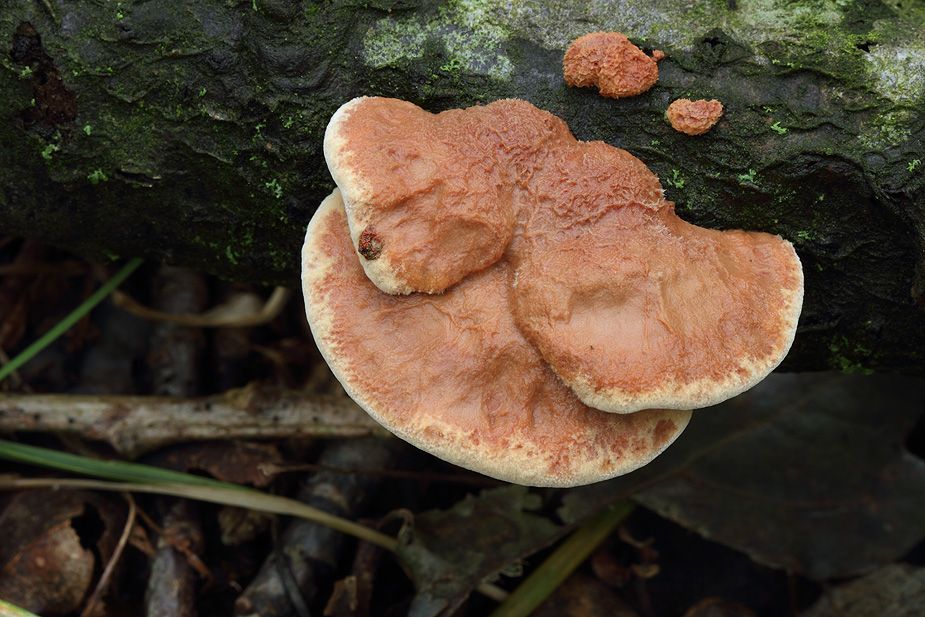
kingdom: Fungi
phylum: Basidiomycota
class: Agaricomycetes
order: Polyporales
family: Phanerochaetaceae
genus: Hapalopilus
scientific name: Hapalopilus rutilans
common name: rødlig okkerporesvamp
